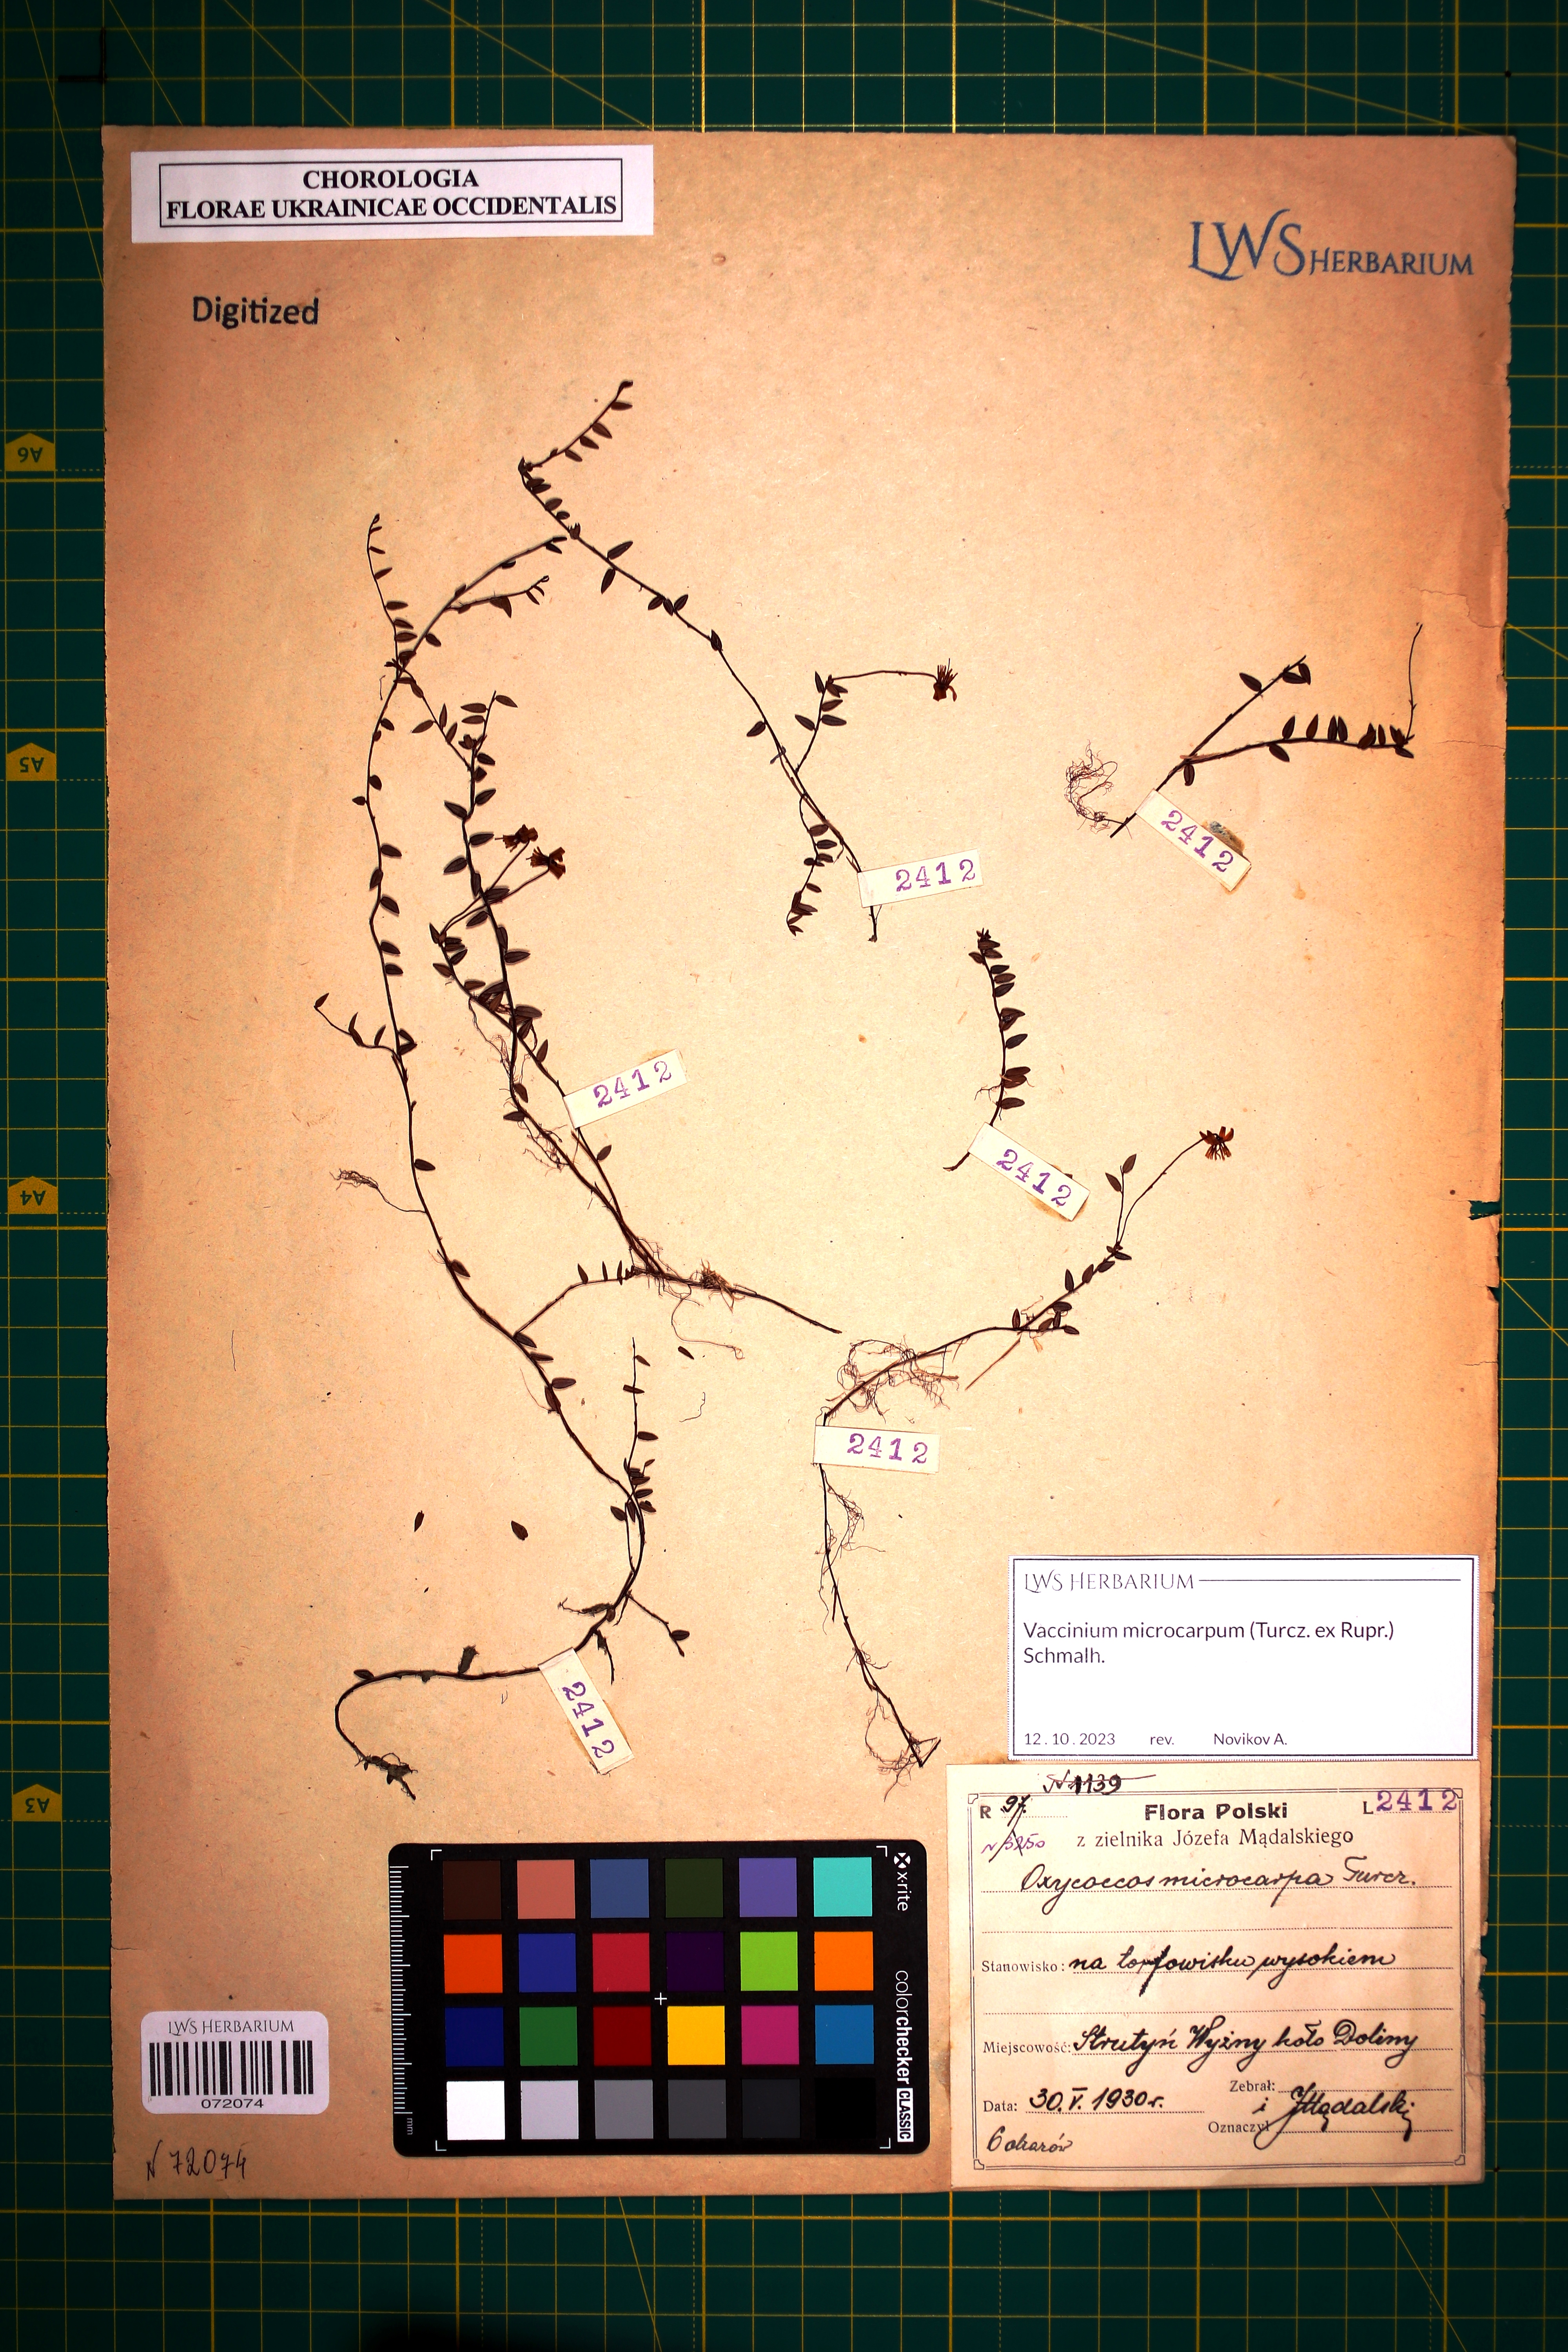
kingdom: Plantae
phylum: Tracheophyta
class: Magnoliopsida
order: Ericales
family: Ericaceae
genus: Vaccinium
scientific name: Vaccinium microcarpum
